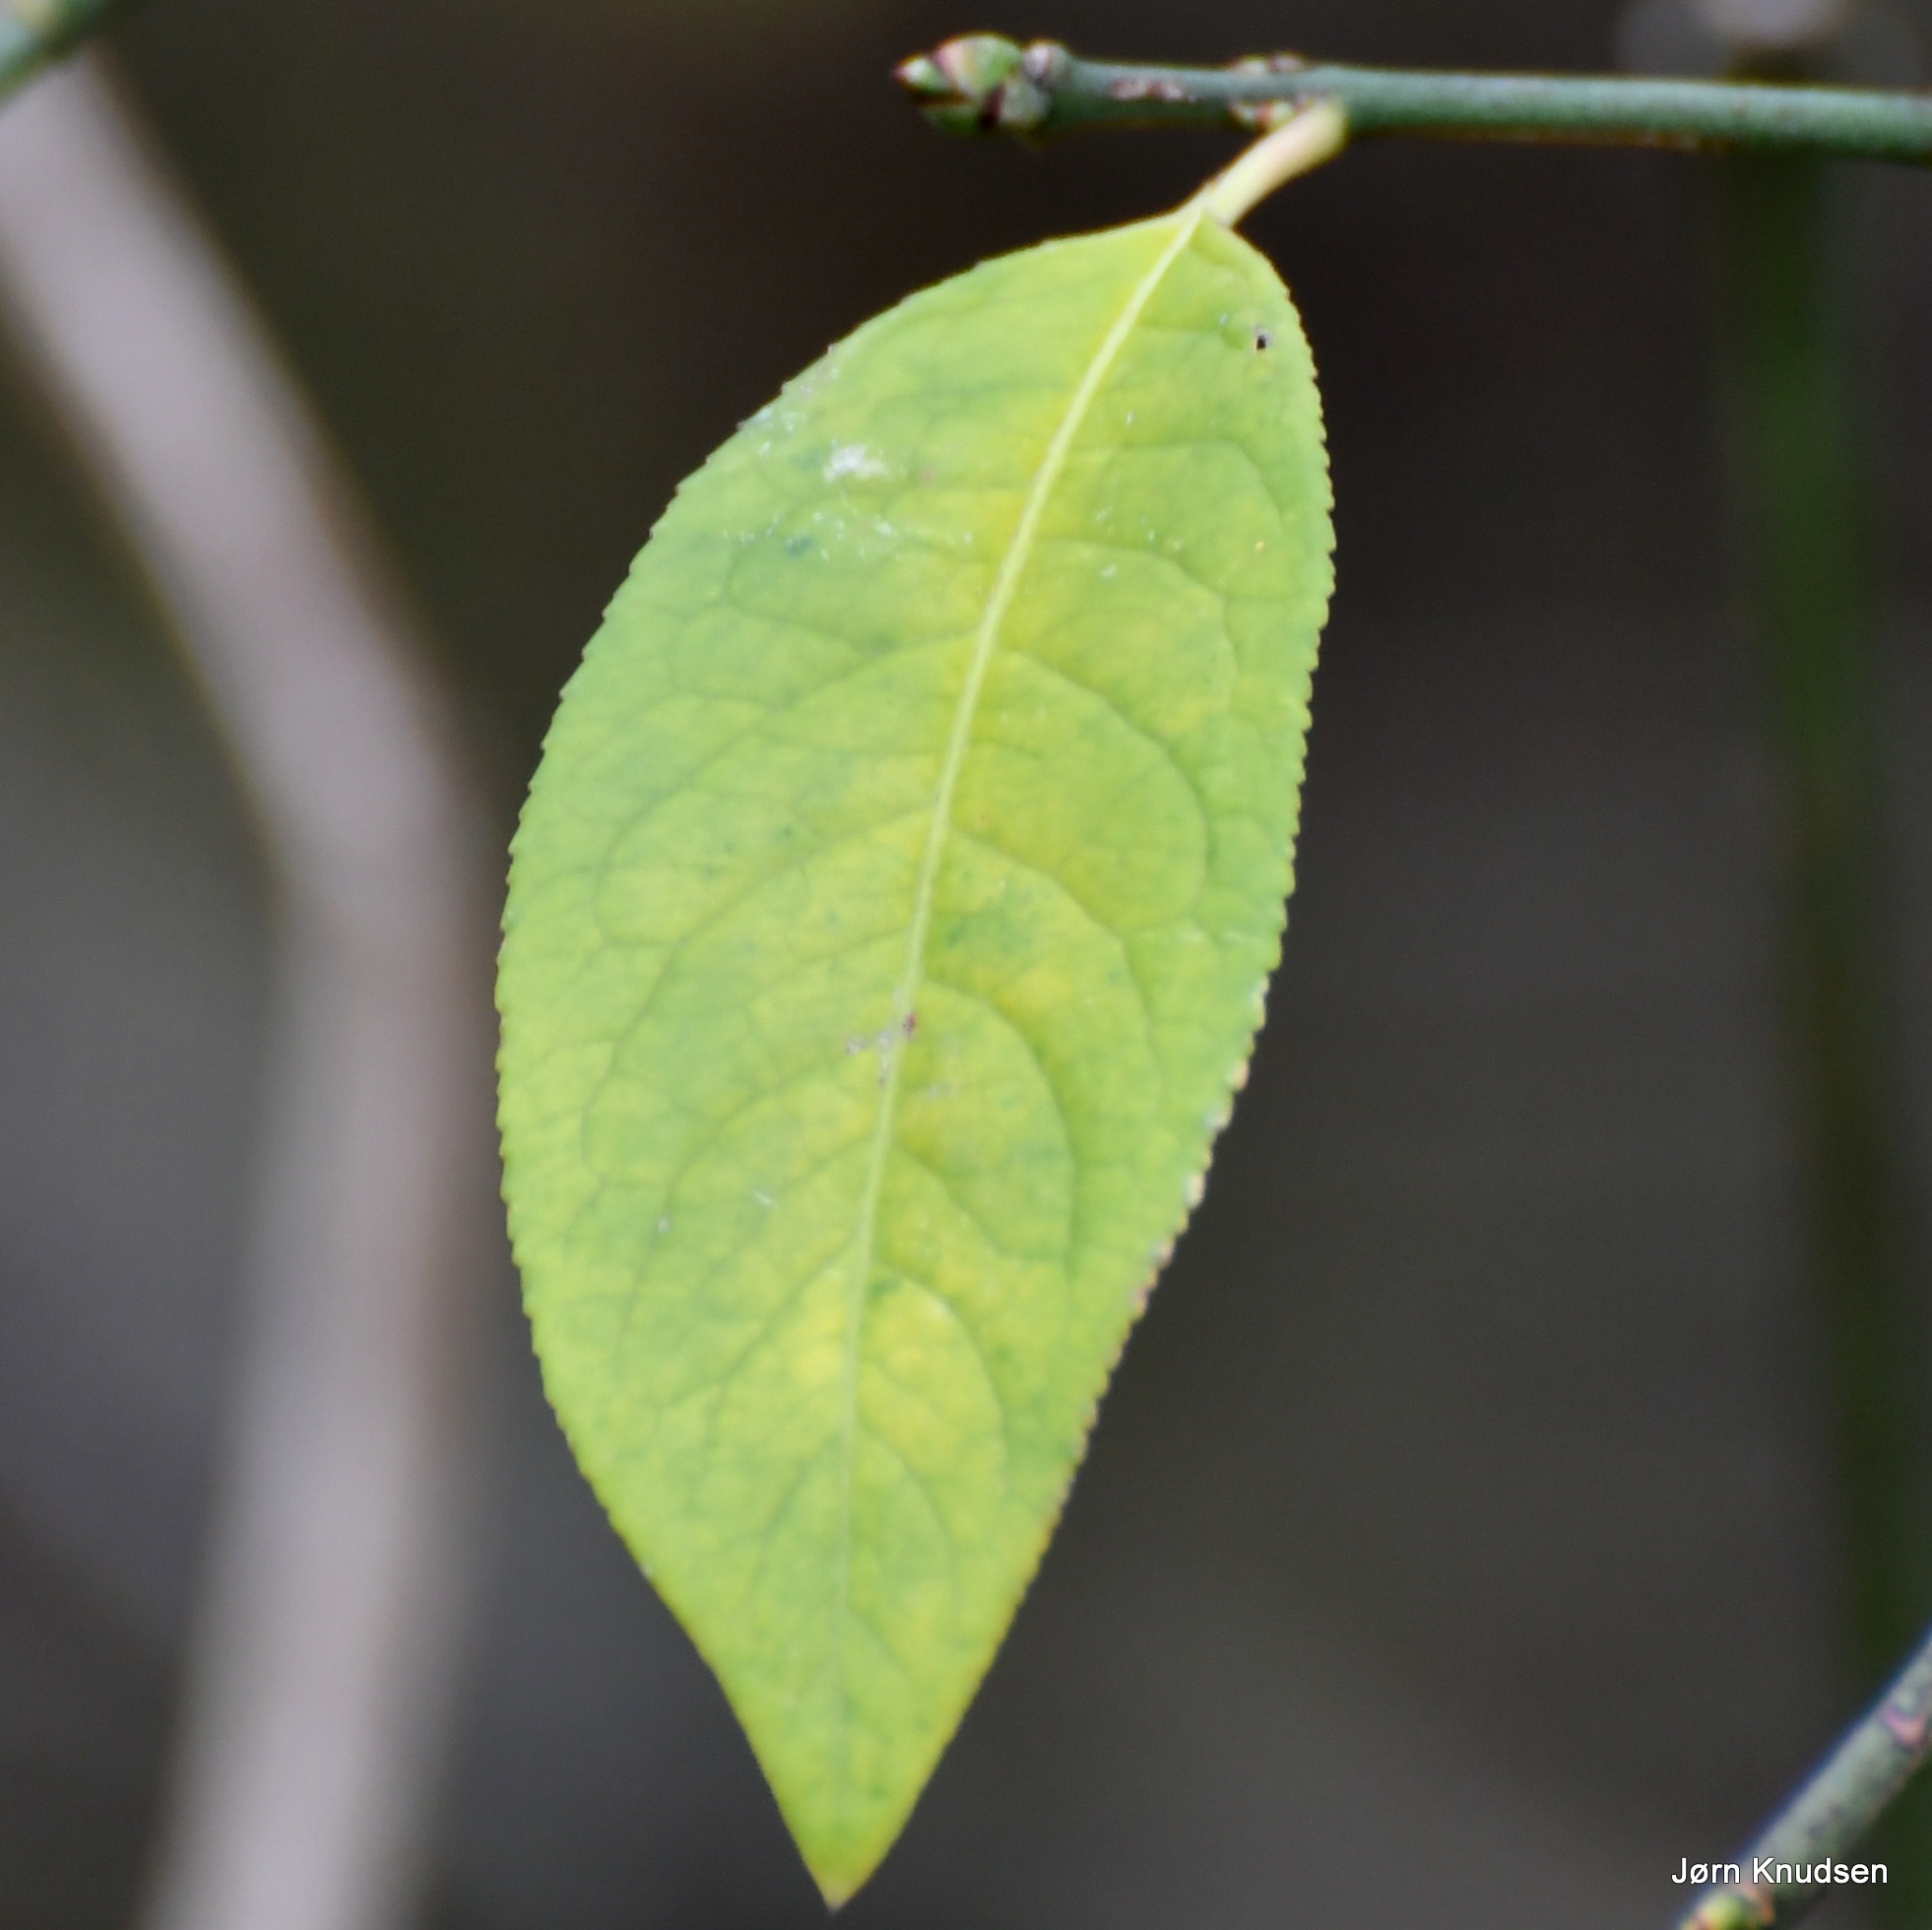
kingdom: Plantae
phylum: Tracheophyta
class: Magnoliopsida
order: Celastrales
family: Celastraceae
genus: Euonymus
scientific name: Euonymus europaeus
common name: Benved
